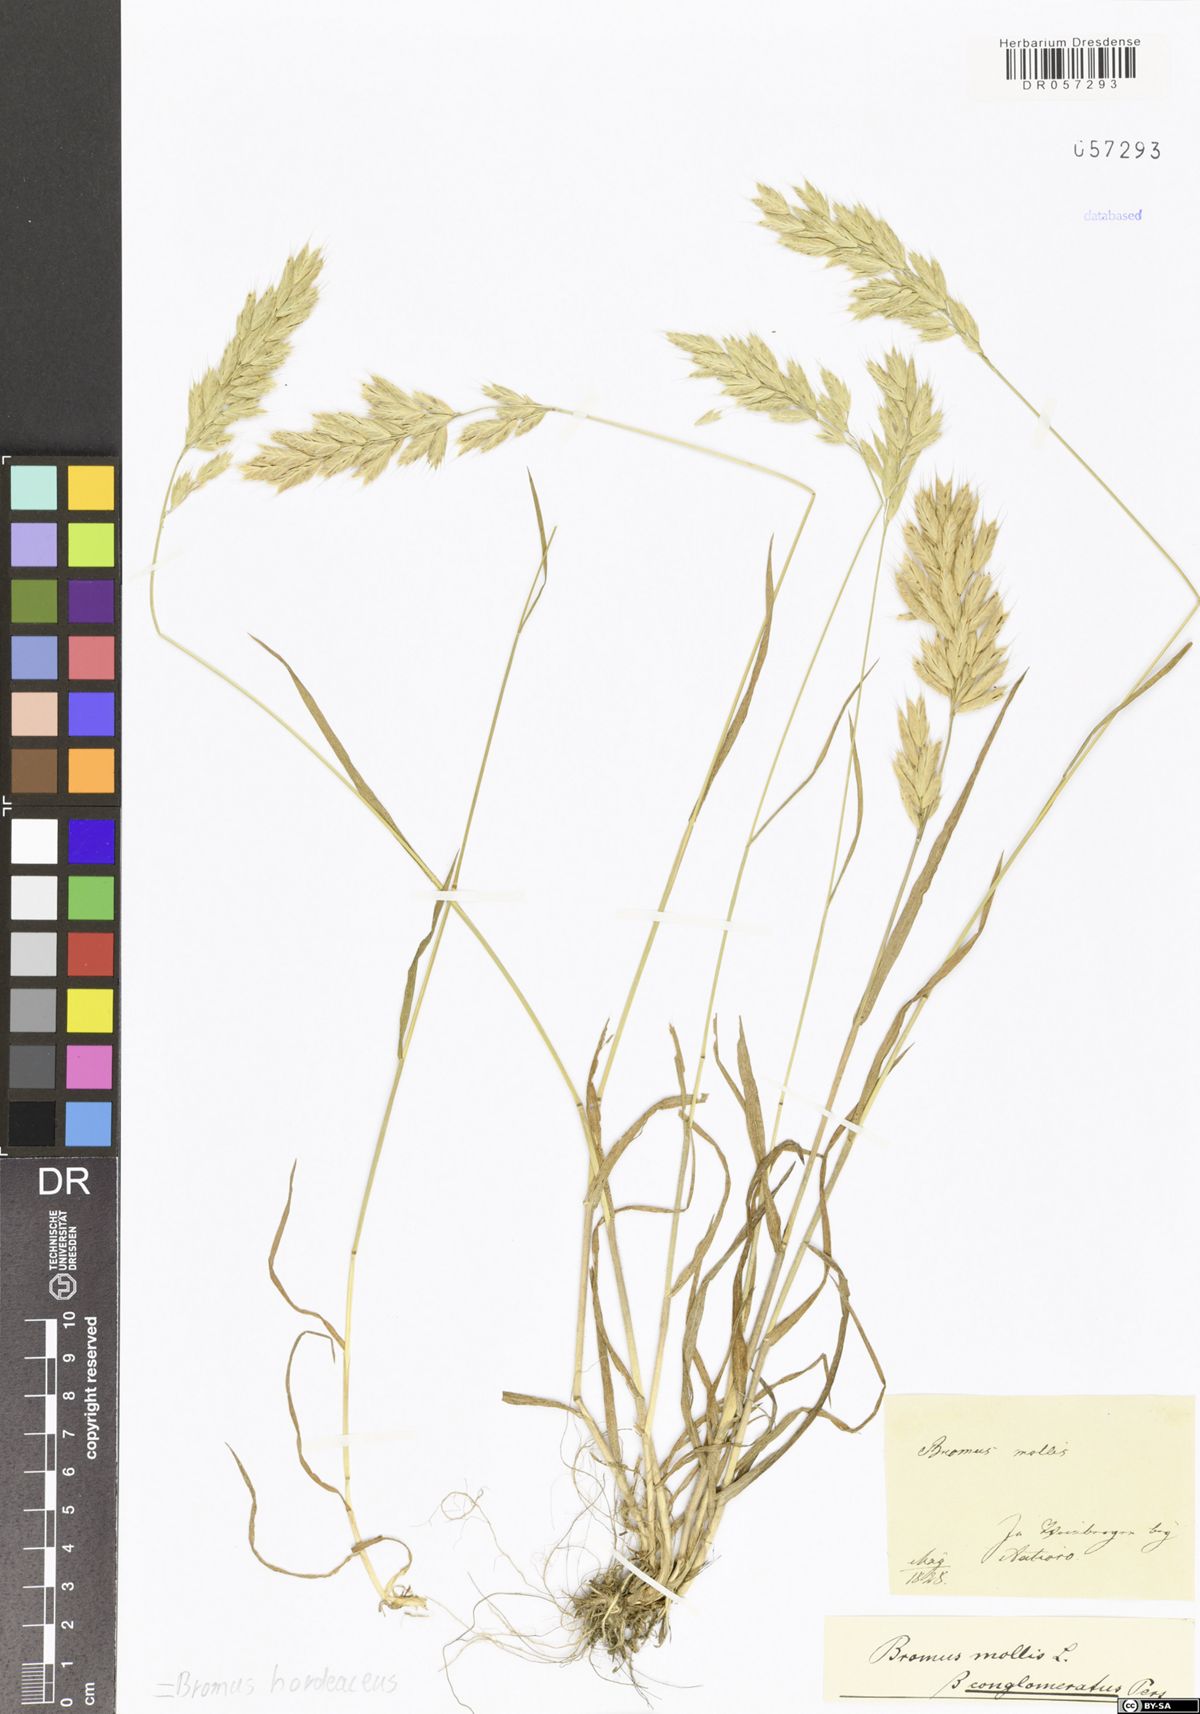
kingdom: Plantae
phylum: Tracheophyta
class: Liliopsida
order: Poales
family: Poaceae
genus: Bromus
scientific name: Bromus hordeaceus
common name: Soft brome
